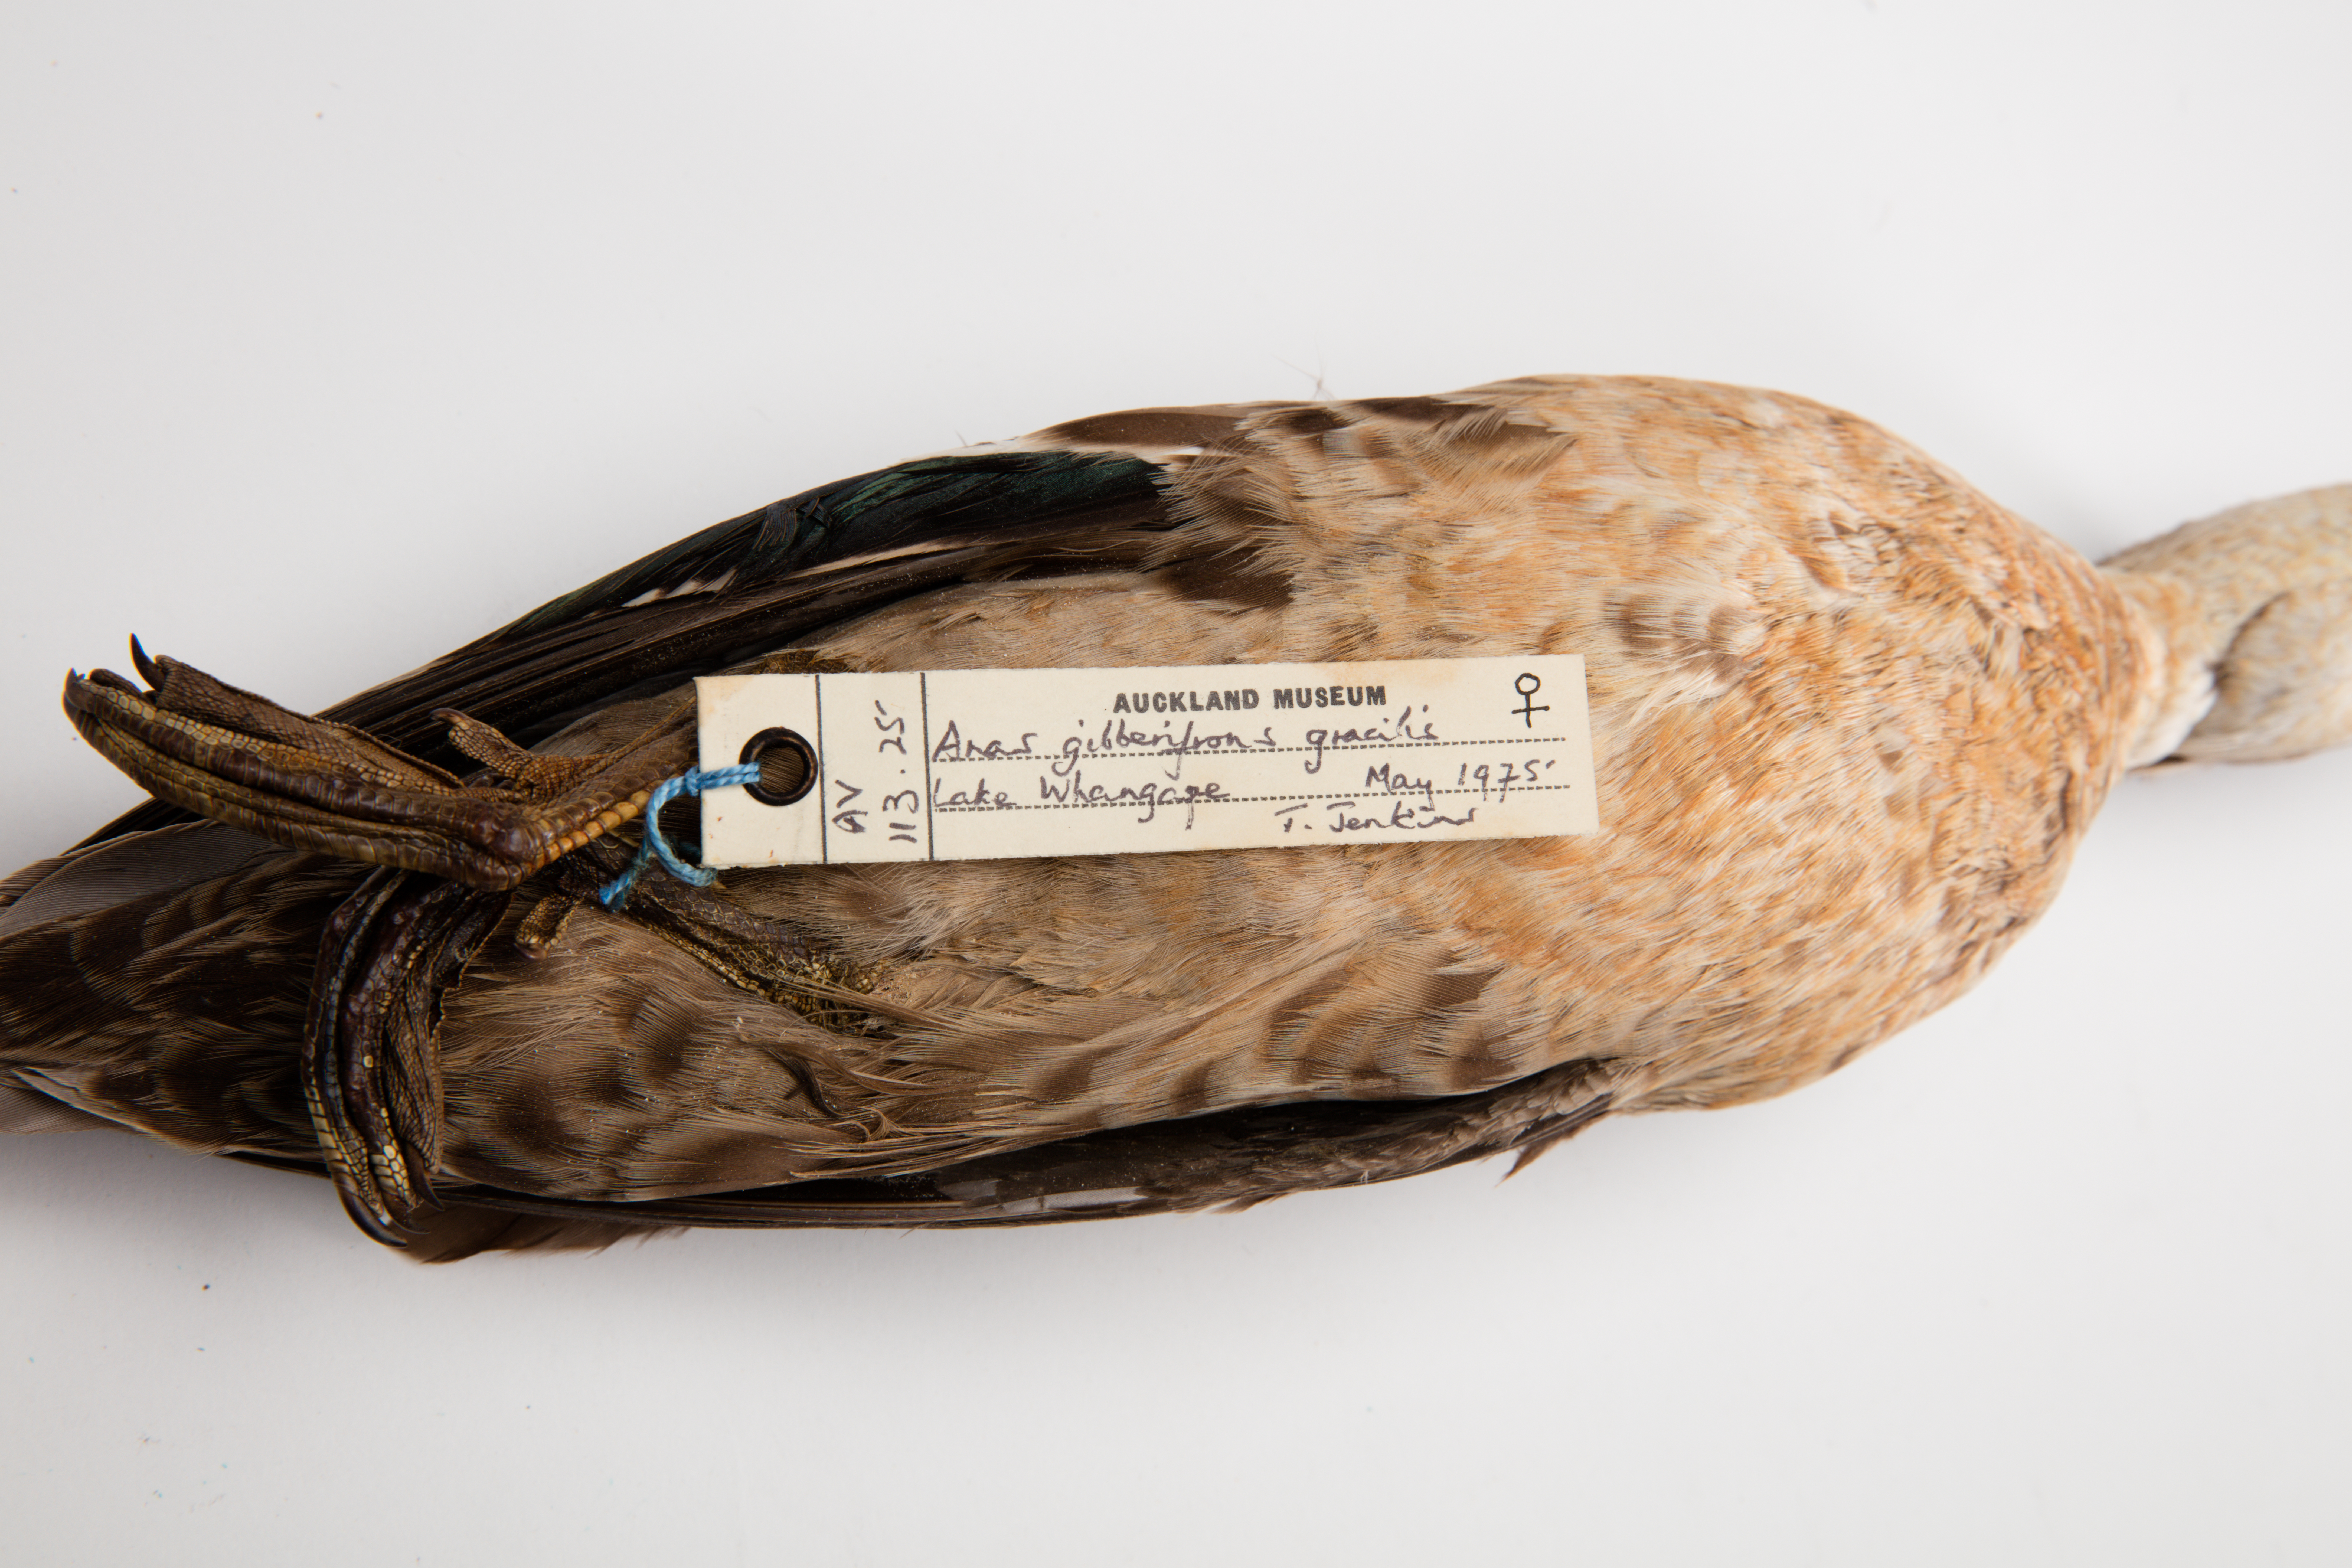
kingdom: Animalia
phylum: Chordata
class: Aves
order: Anseriformes
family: Anatidae
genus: Anas
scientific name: Anas gracilis
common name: Grey teal
